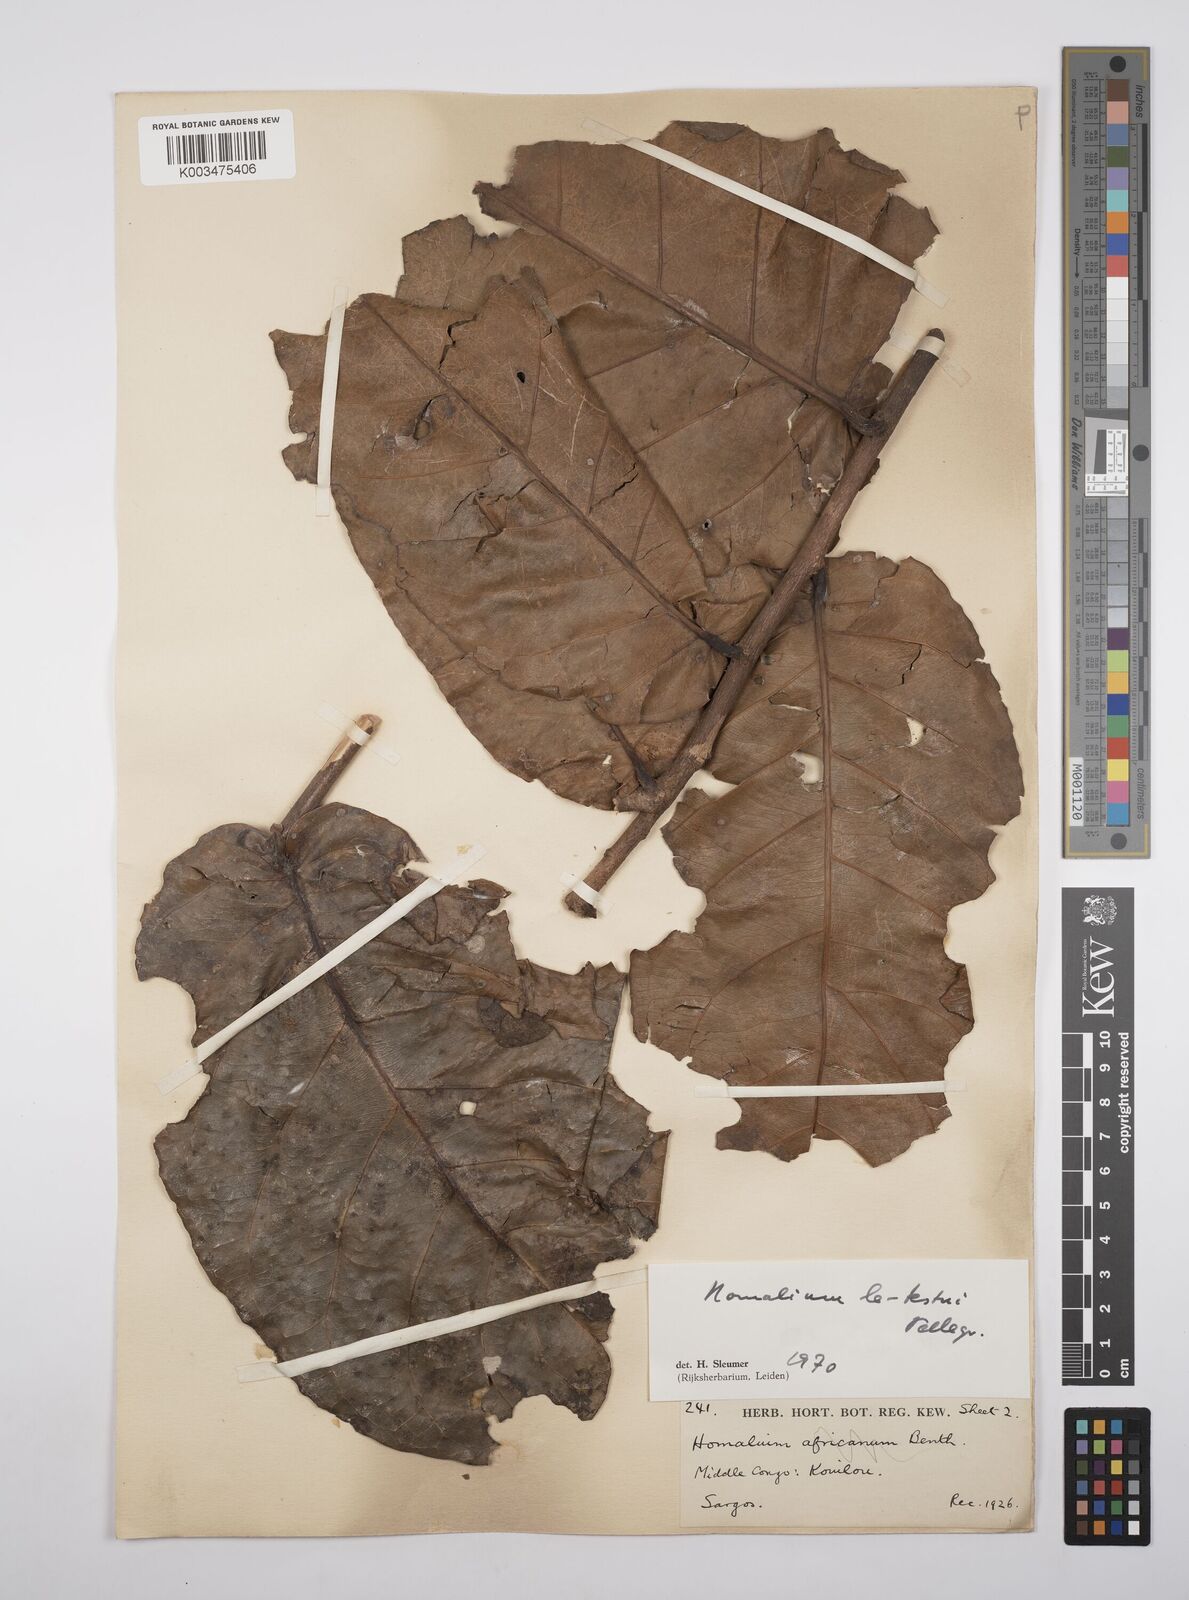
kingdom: Plantae
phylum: Tracheophyta
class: Magnoliopsida
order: Malpighiales
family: Salicaceae
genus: Homalium
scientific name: Homalium letestui
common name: African homalium
